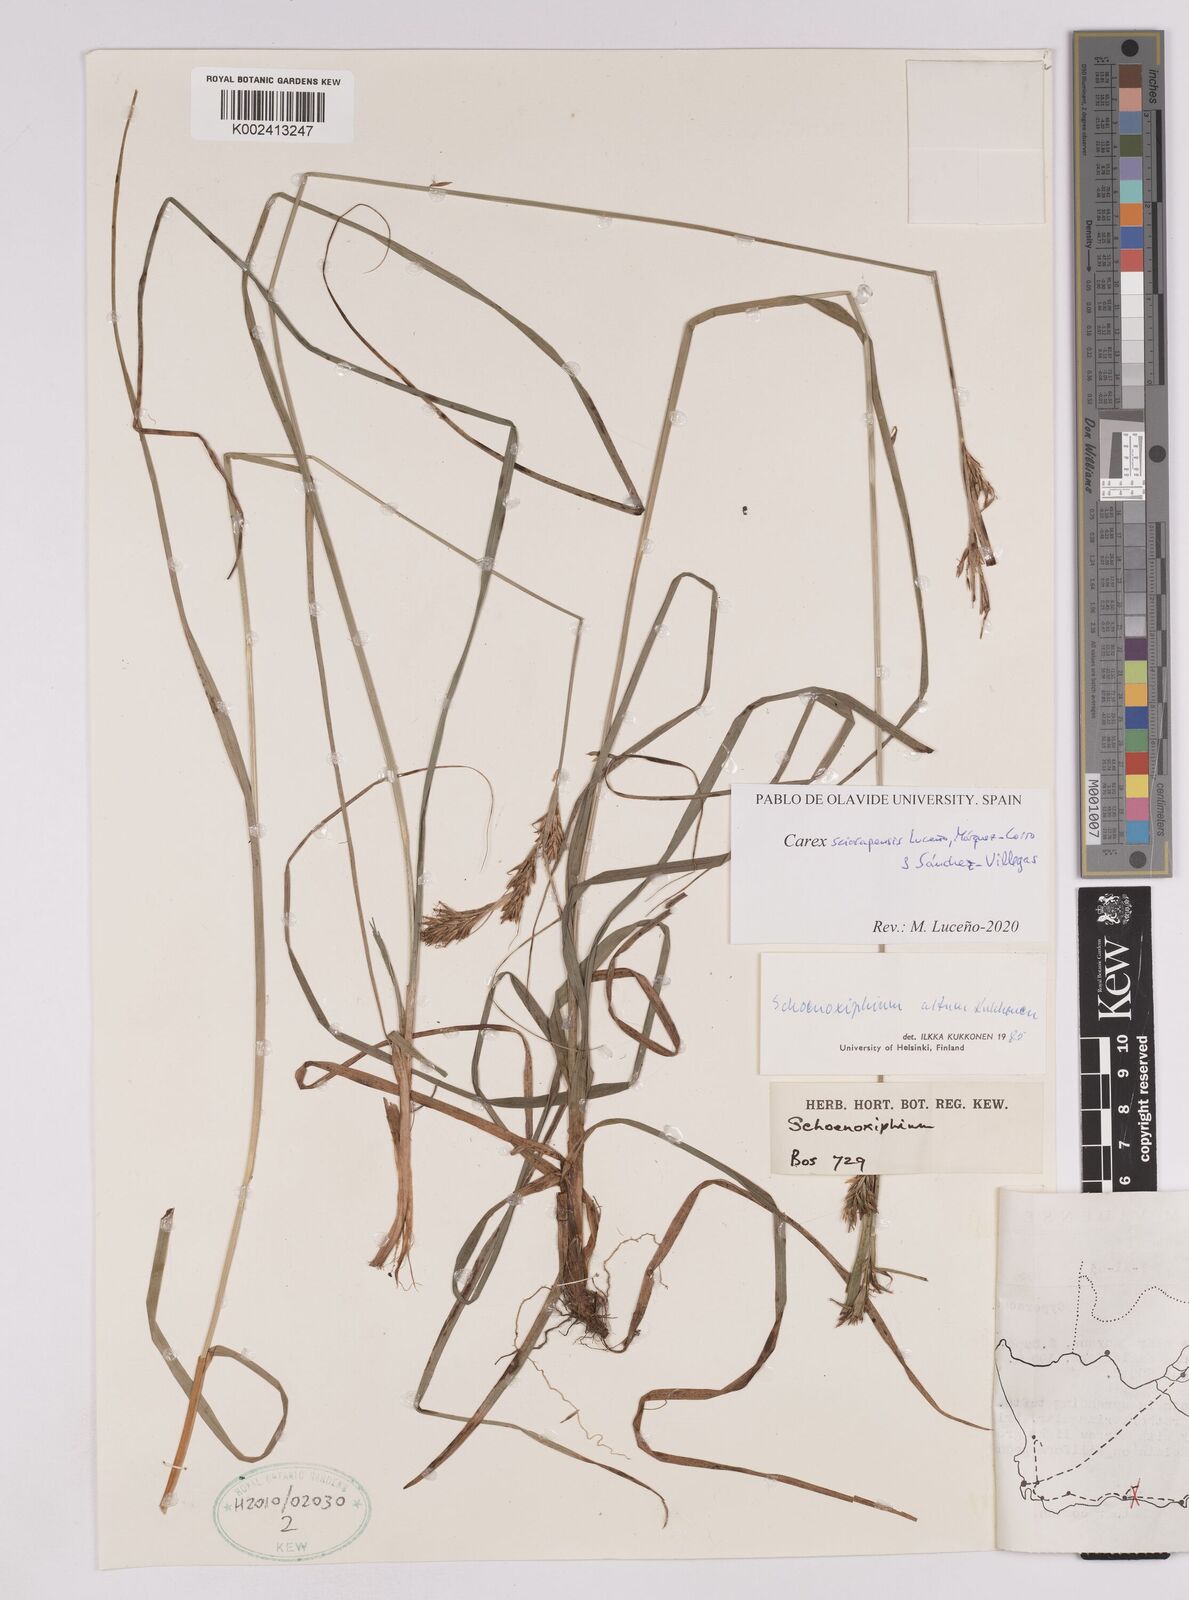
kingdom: Plantae
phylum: Tracheophyta
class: Liliopsida
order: Poales
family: Cyperaceae
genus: Carex
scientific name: Carex lancea
